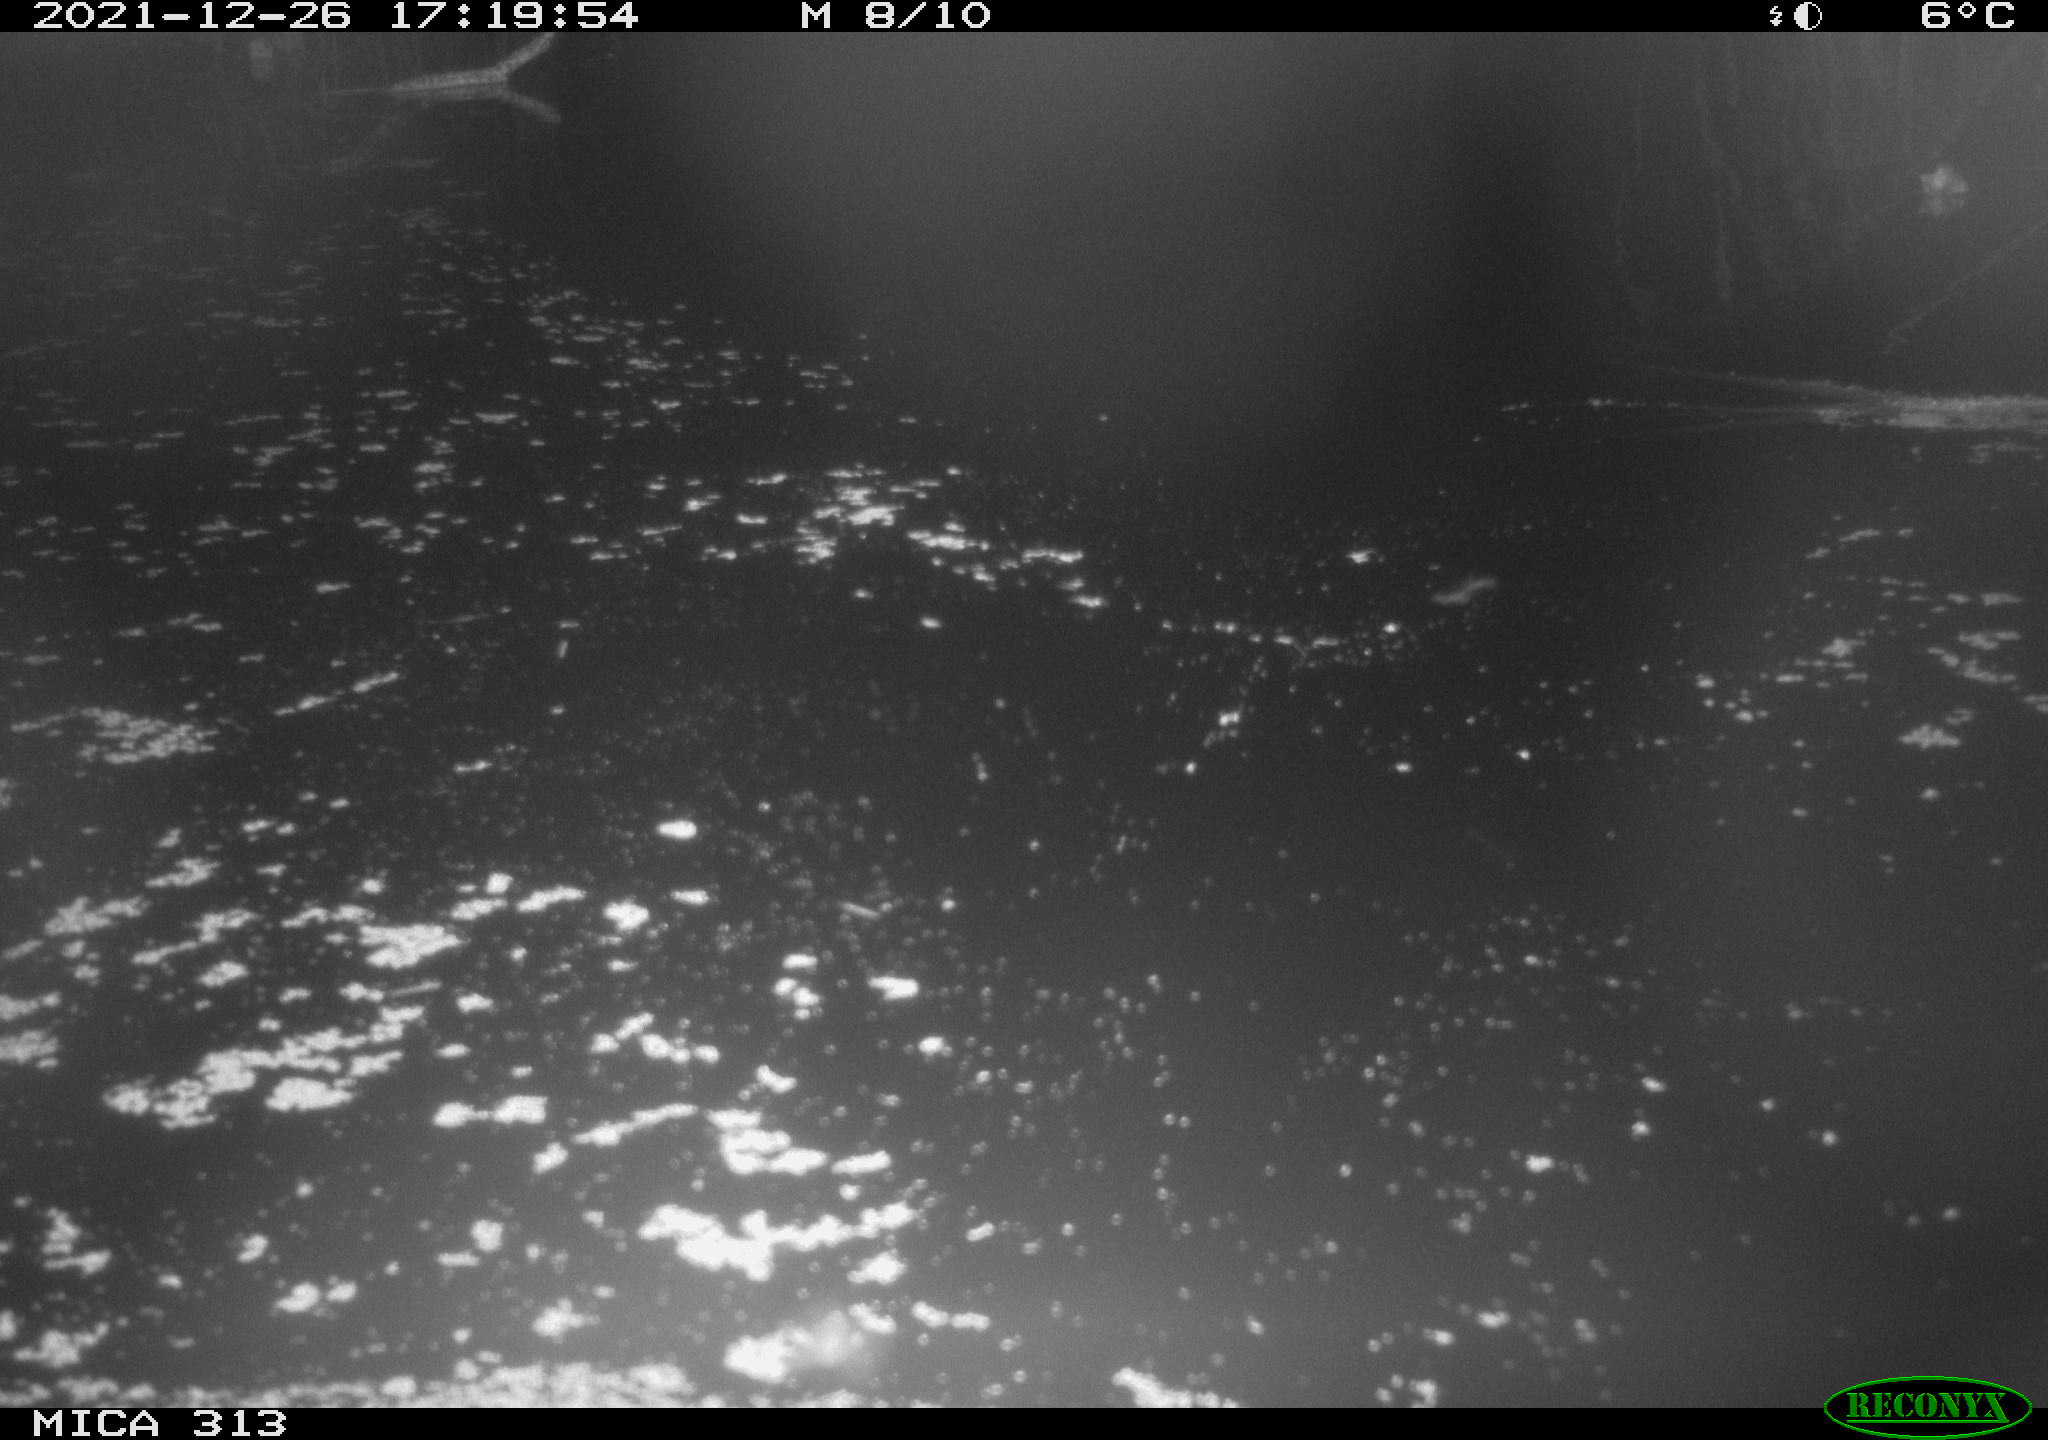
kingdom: Animalia
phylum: Chordata
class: Aves
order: Gruiformes
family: Rallidae
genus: Gallinula
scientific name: Gallinula chloropus
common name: Common moorhen
